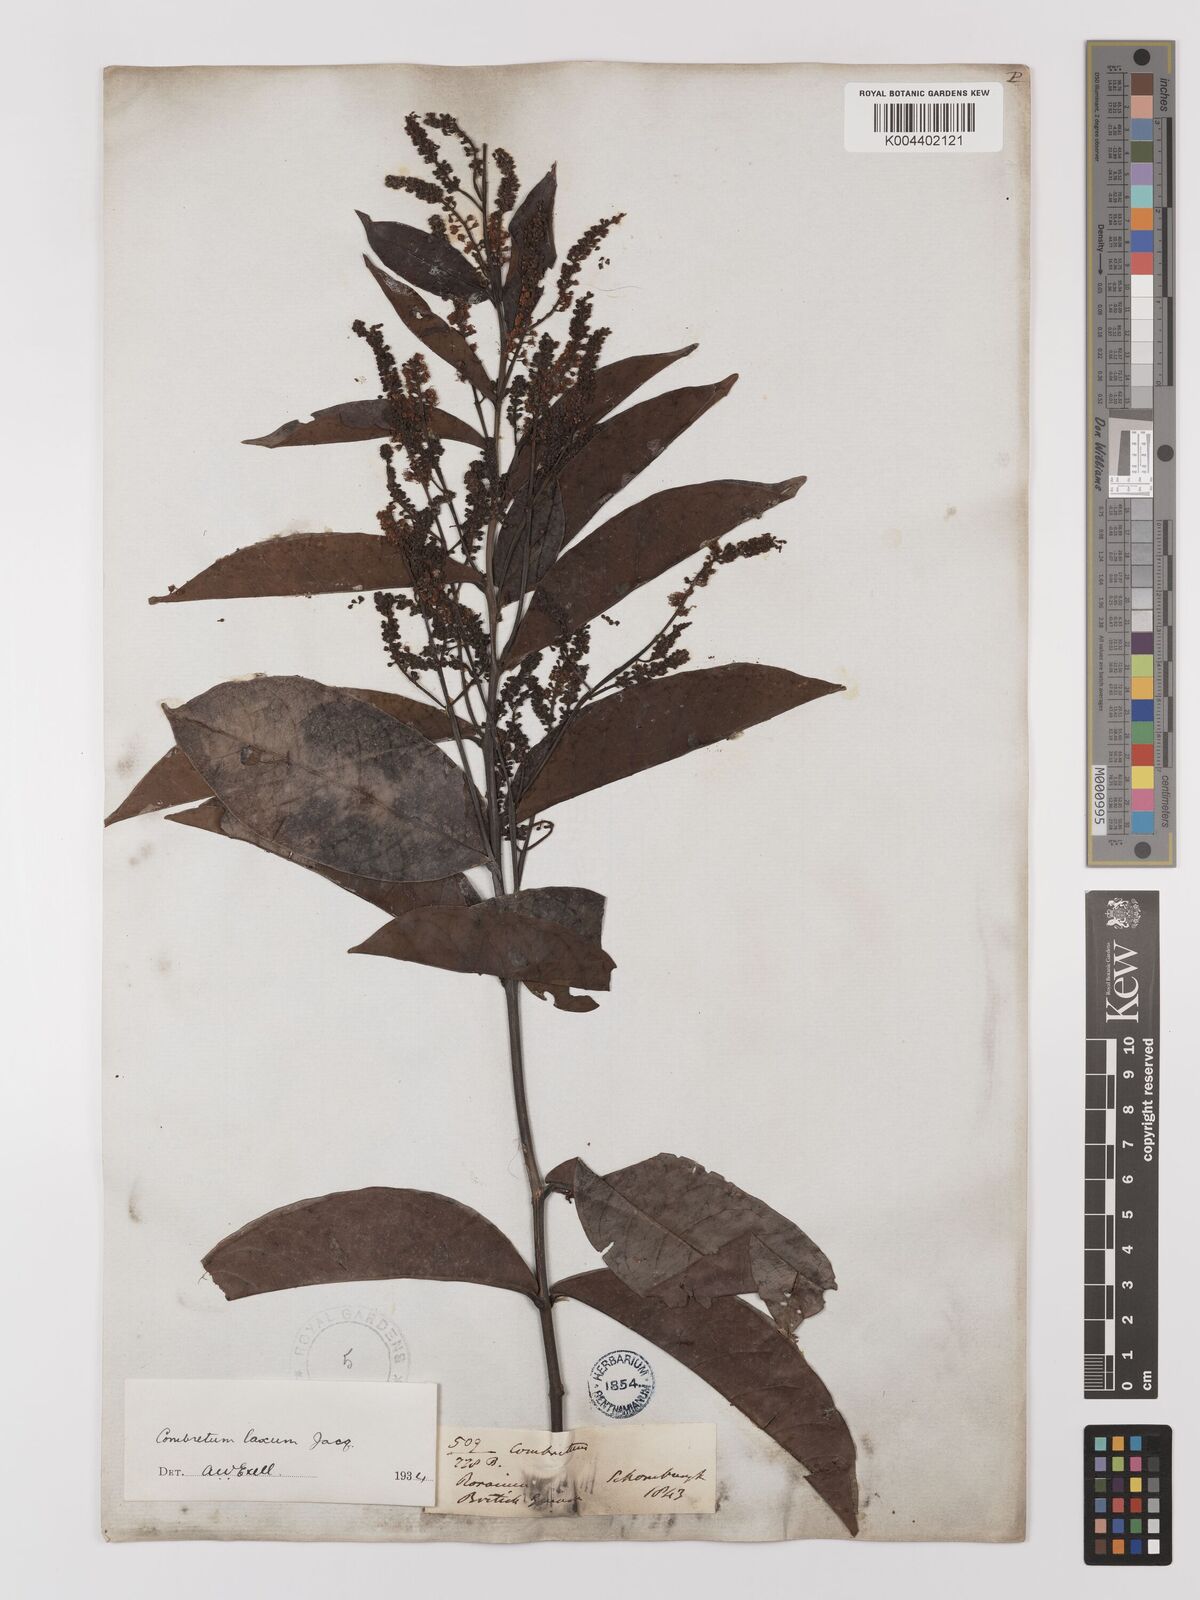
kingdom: Plantae
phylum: Tracheophyta
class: Magnoliopsida
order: Myrtales
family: Combretaceae
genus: Combretum
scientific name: Combretum
